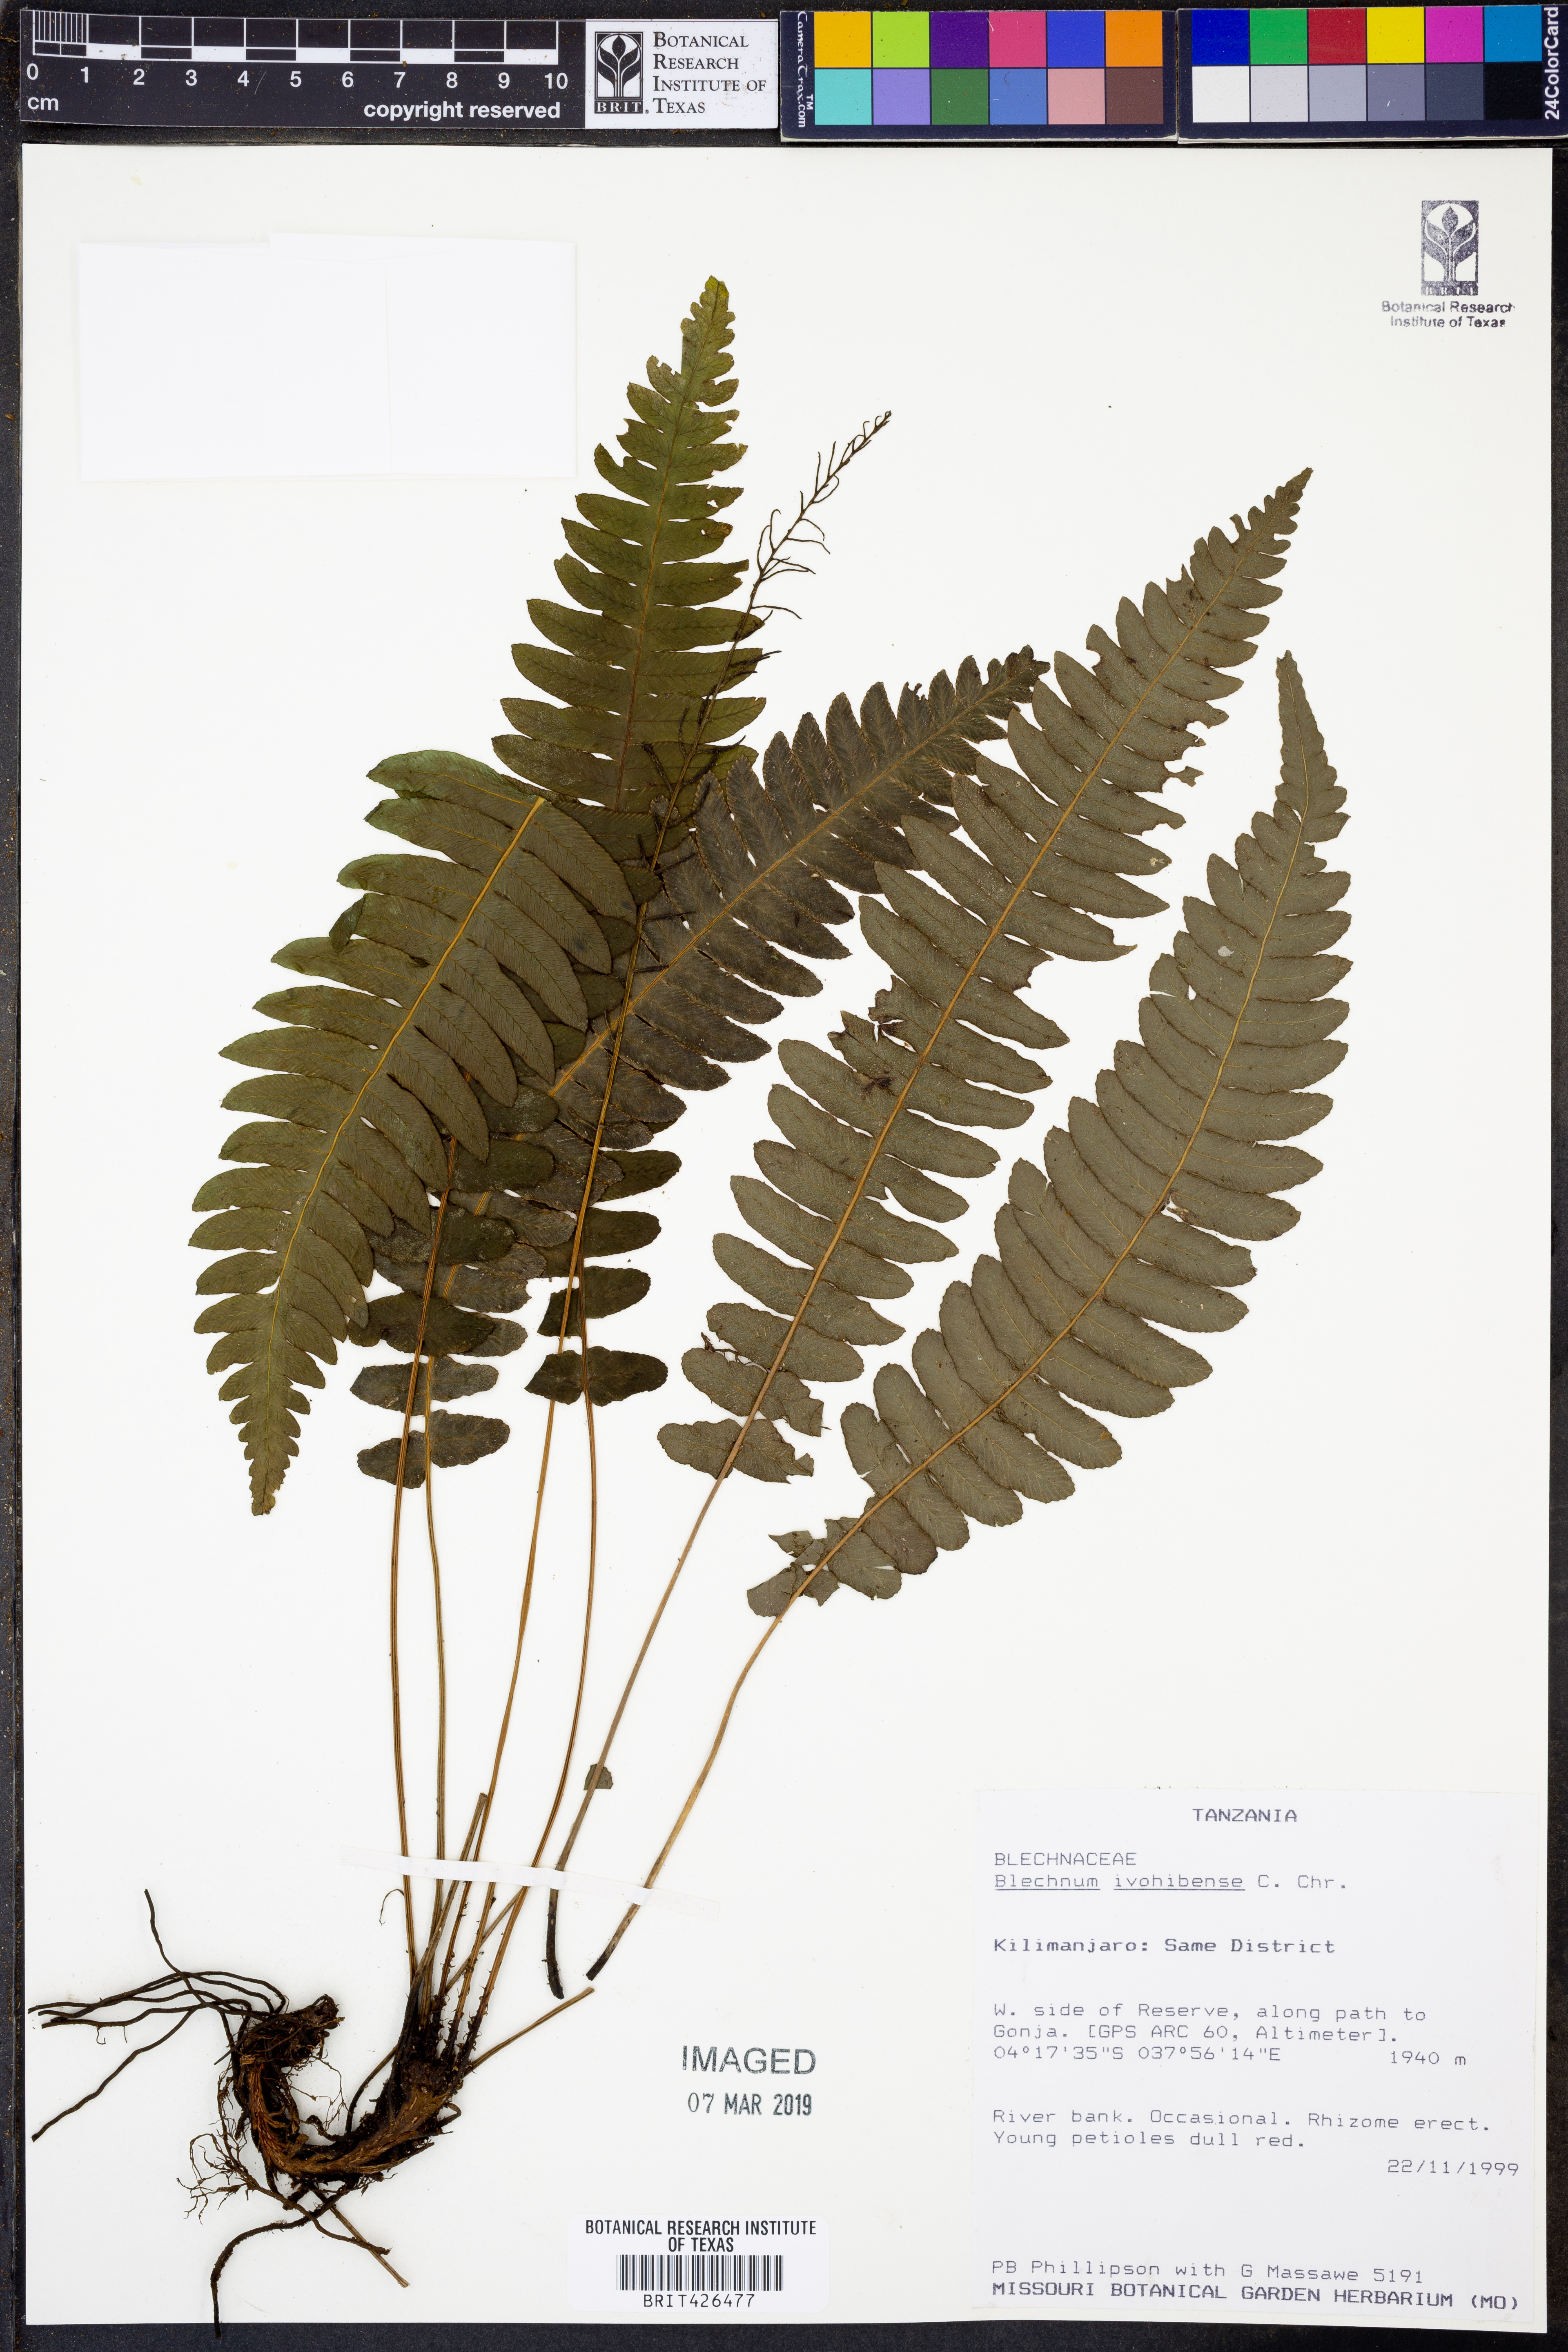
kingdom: Plantae
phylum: Tracheophyta
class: Polypodiopsida
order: Polypodiales
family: Blechnaceae
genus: Cranfillia
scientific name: Cranfillia bakeri
